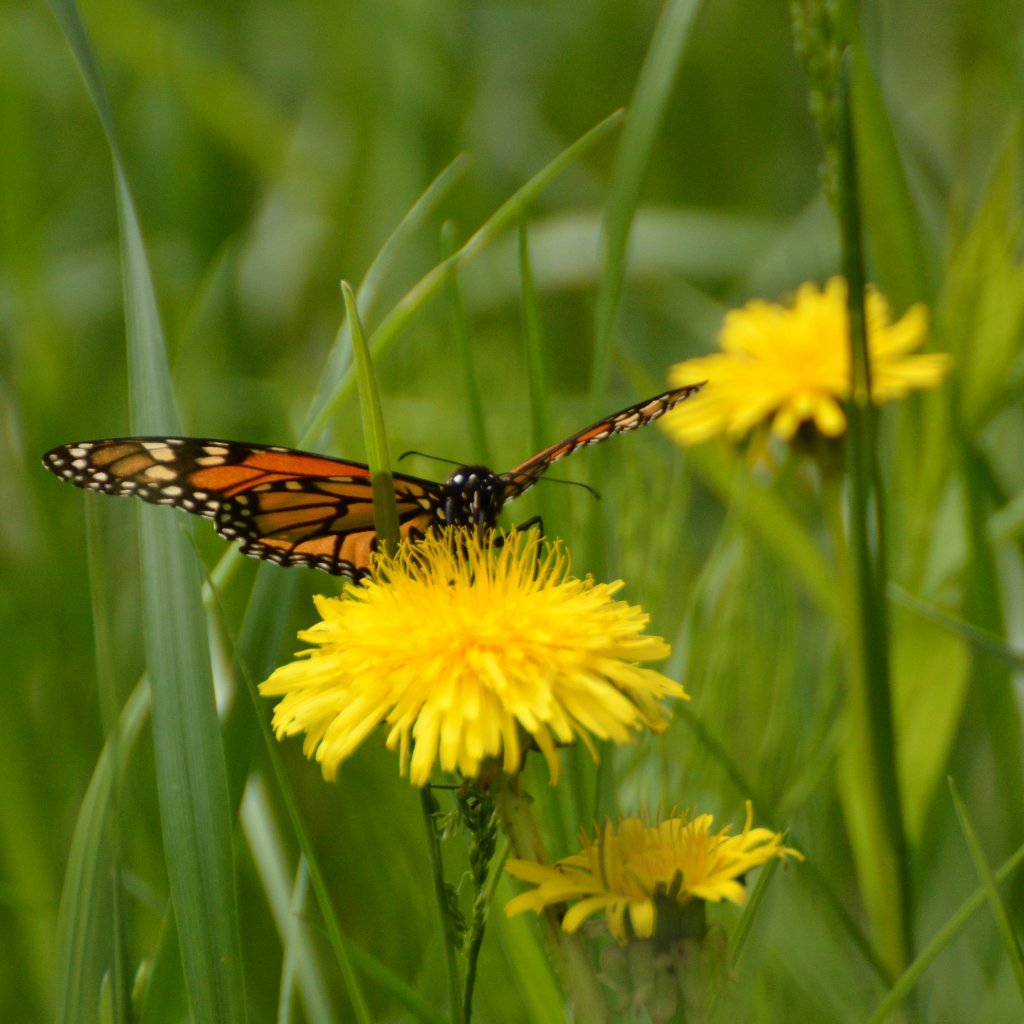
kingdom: Animalia
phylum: Arthropoda
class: Insecta
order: Lepidoptera
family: Nymphalidae
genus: Danaus
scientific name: Danaus plexippus
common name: Monarch
